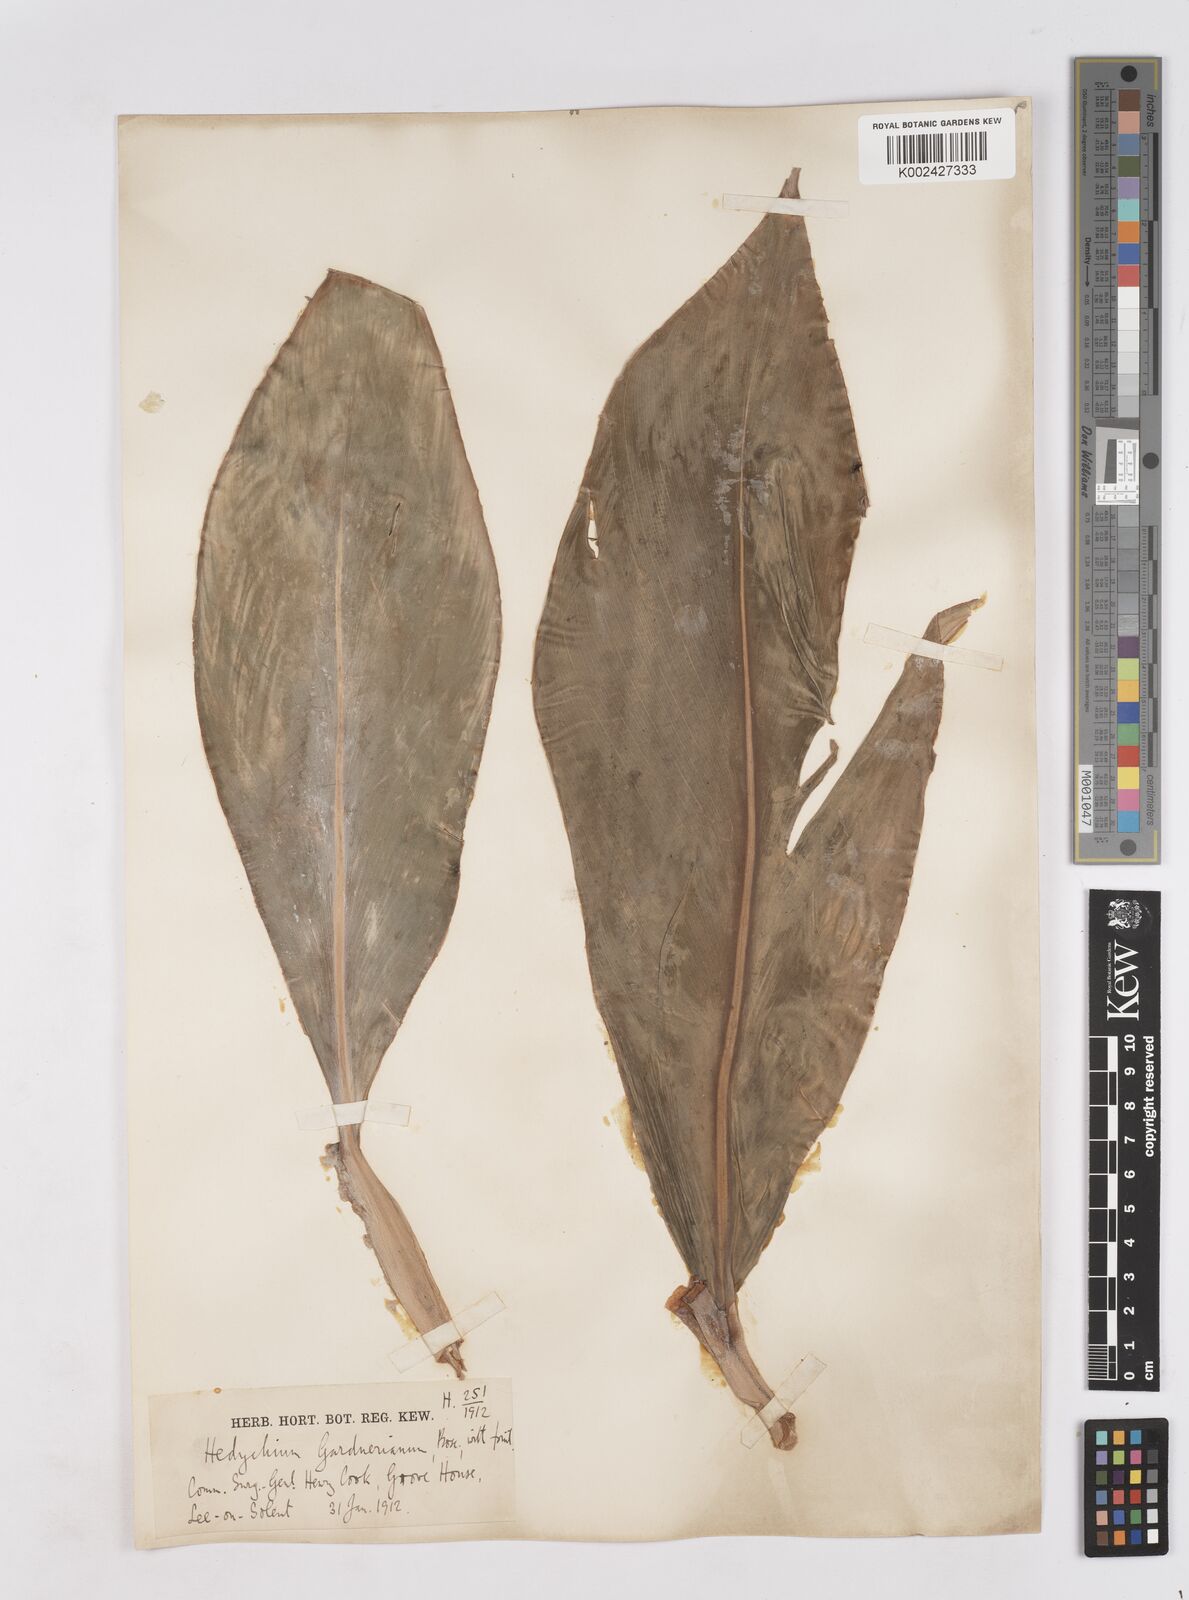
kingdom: Plantae
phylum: Tracheophyta
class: Liliopsida
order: Zingiberales
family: Zingiberaceae
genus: Hedychium
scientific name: Hedychium gardnerianum
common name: Himalayan ginger
